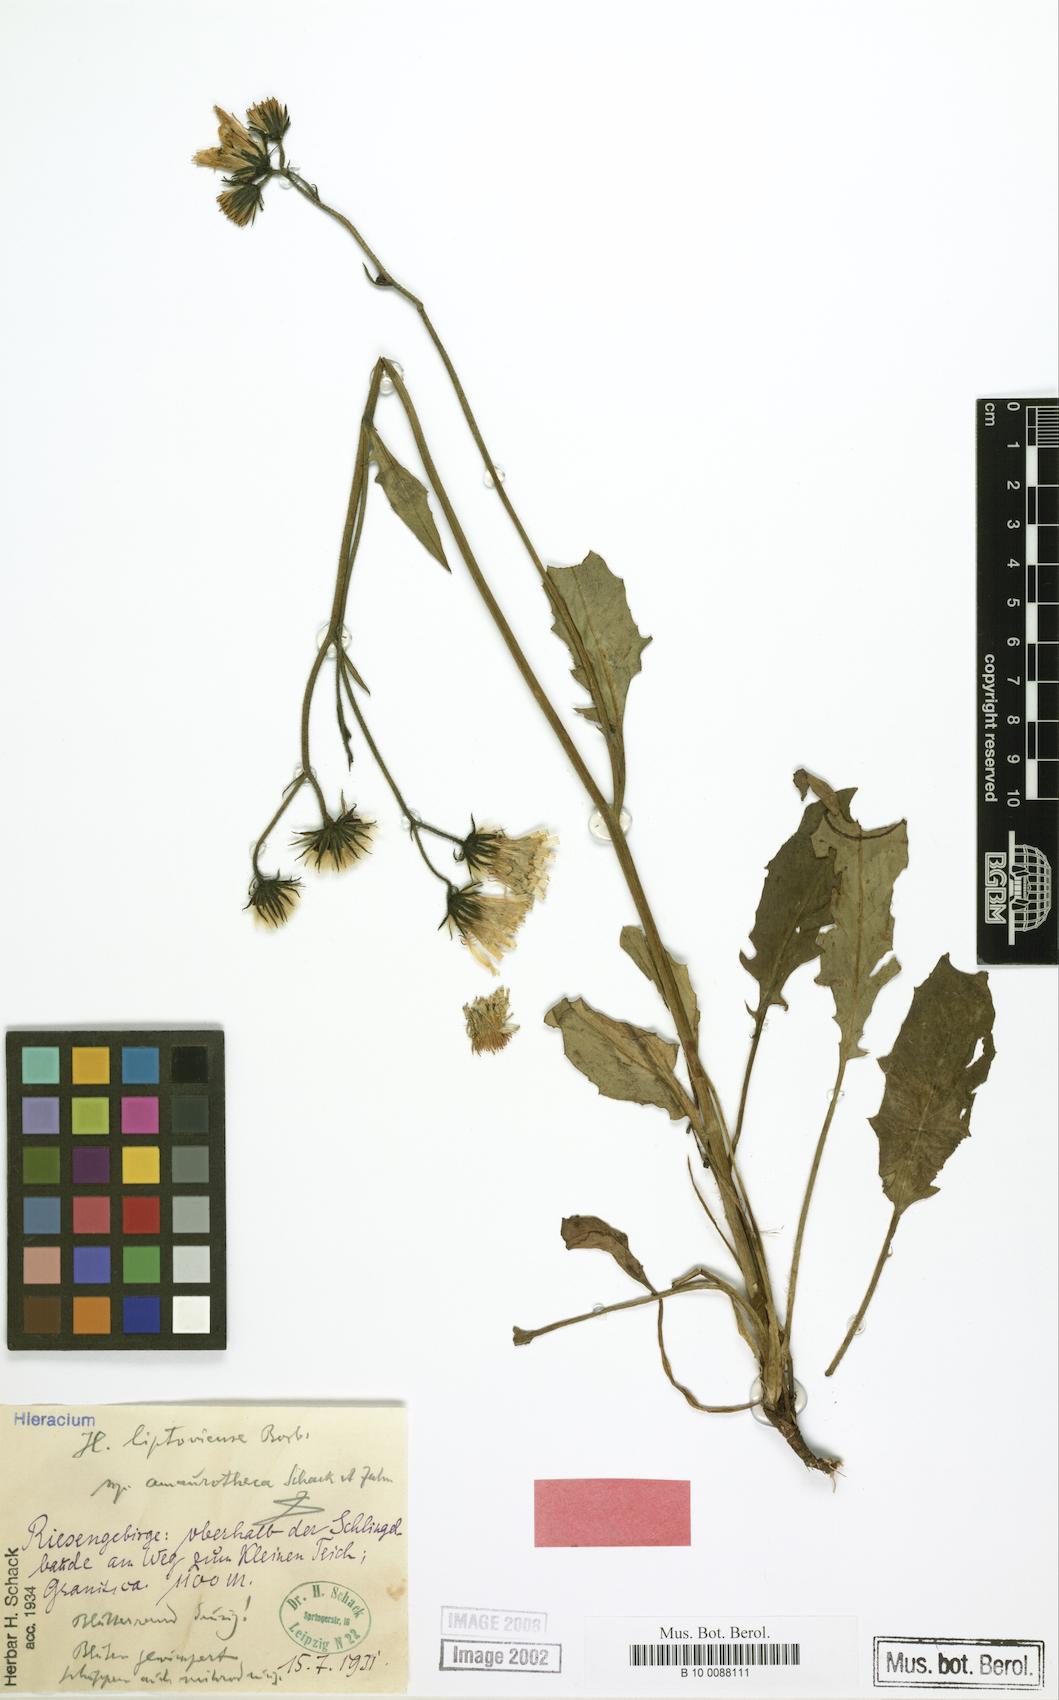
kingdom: Plantae
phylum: Tracheophyta
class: Magnoliopsida
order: Asterales
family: Asteraceae
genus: Hieracium
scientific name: Hieracium liptoviense
